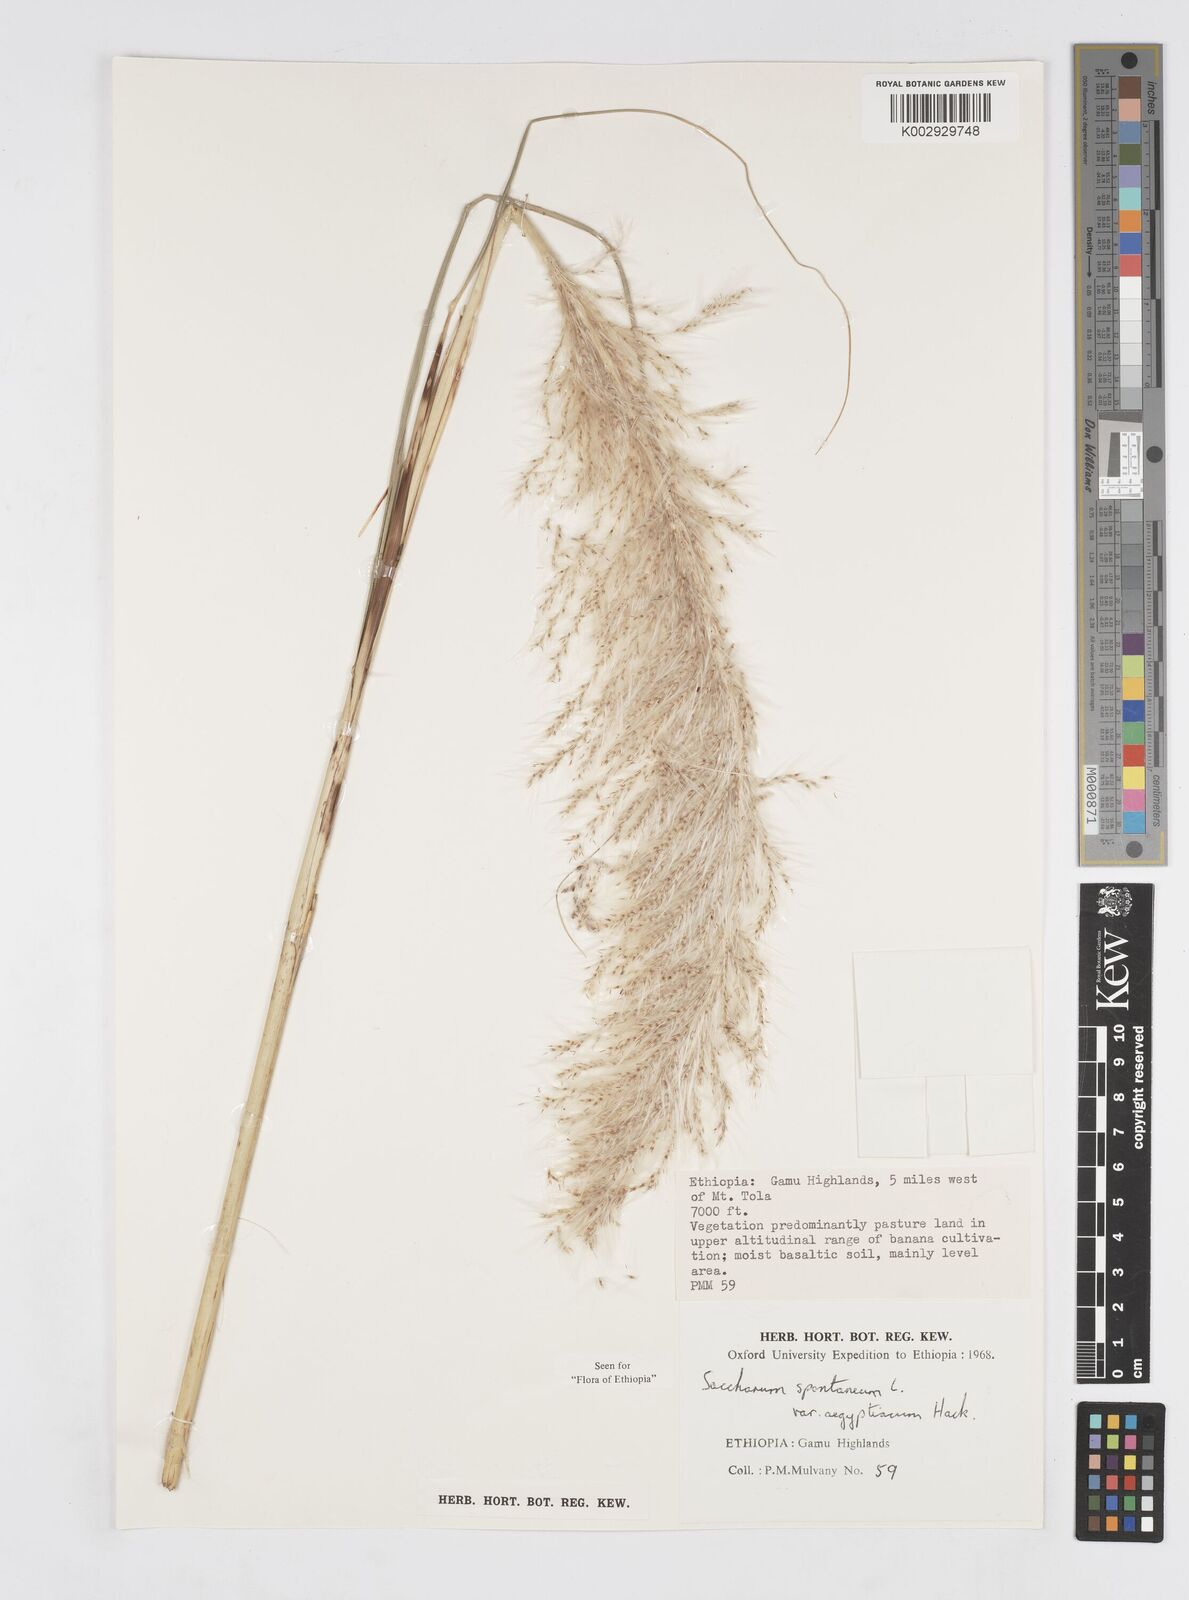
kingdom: Plantae
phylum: Tracheophyta
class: Liliopsida
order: Poales
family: Poaceae
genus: Saccharum
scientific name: Saccharum spontaneum
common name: Wild sugarcane
